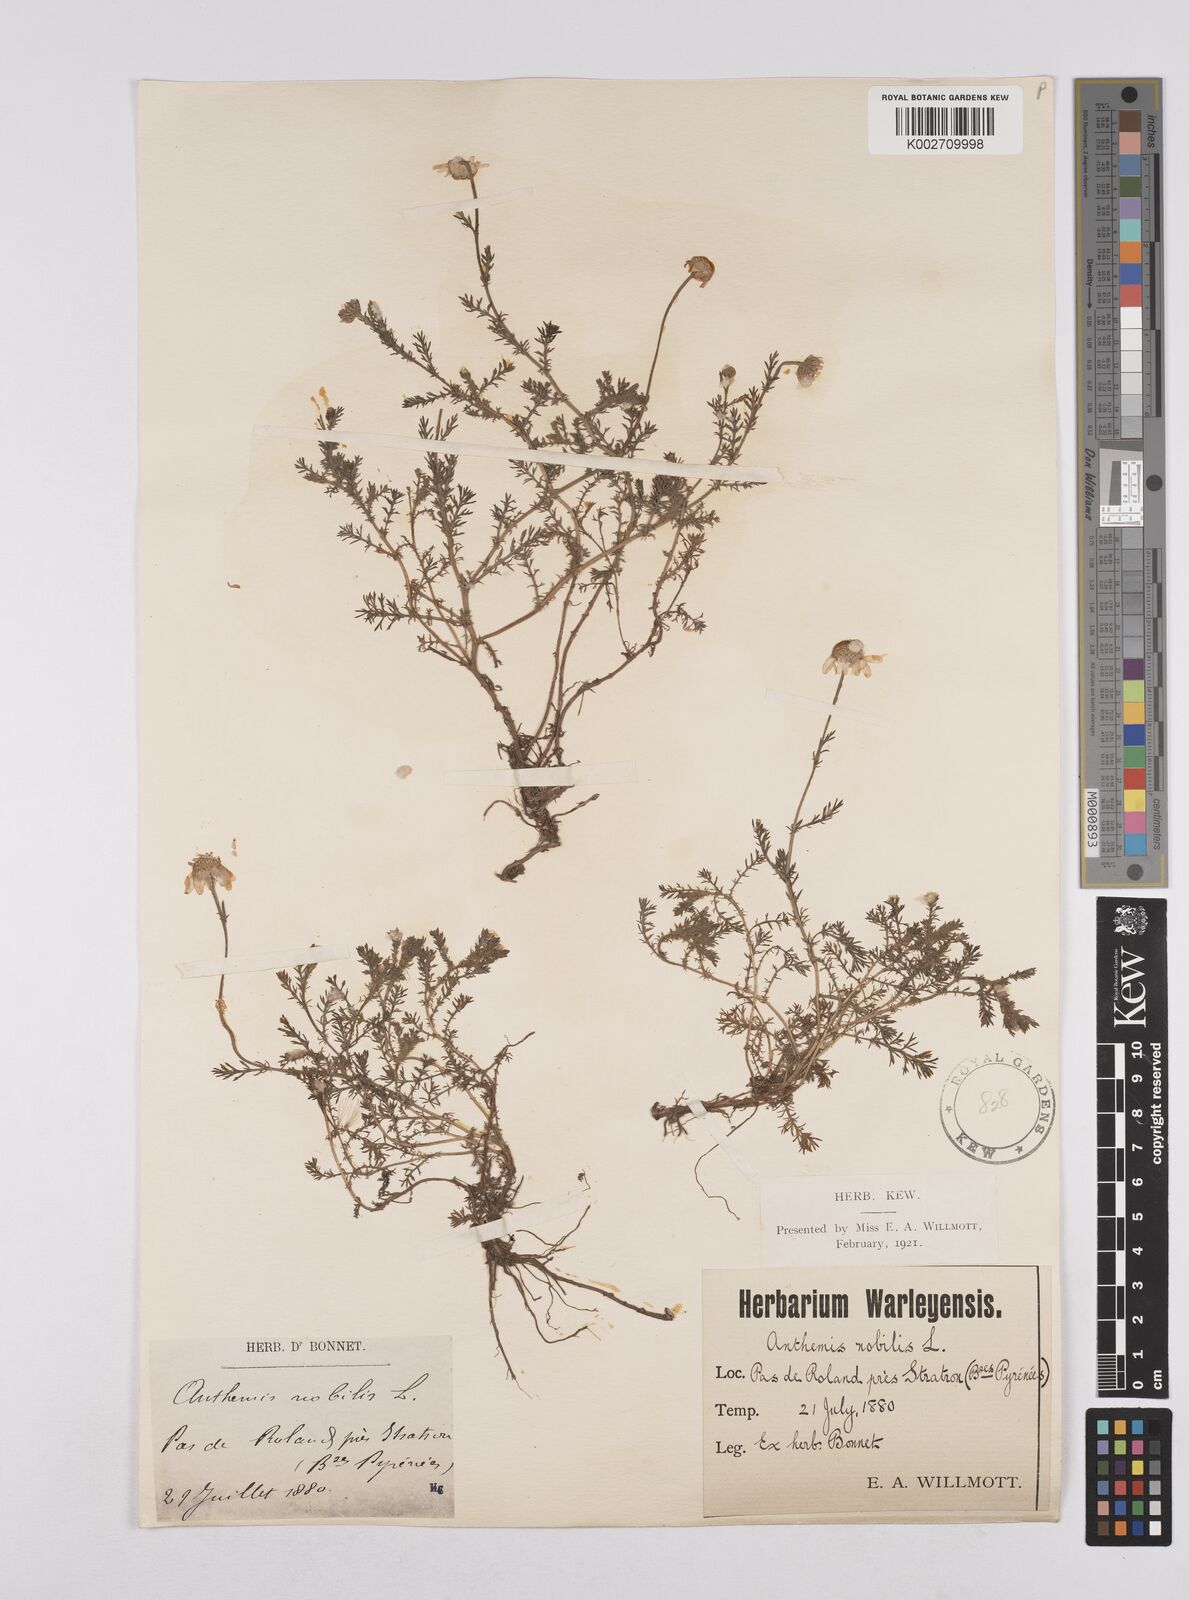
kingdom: Plantae
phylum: Tracheophyta
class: Magnoliopsida
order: Asterales
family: Asteraceae
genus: Chamaemelum
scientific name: Chamaemelum nobile
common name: Roman chamomile
